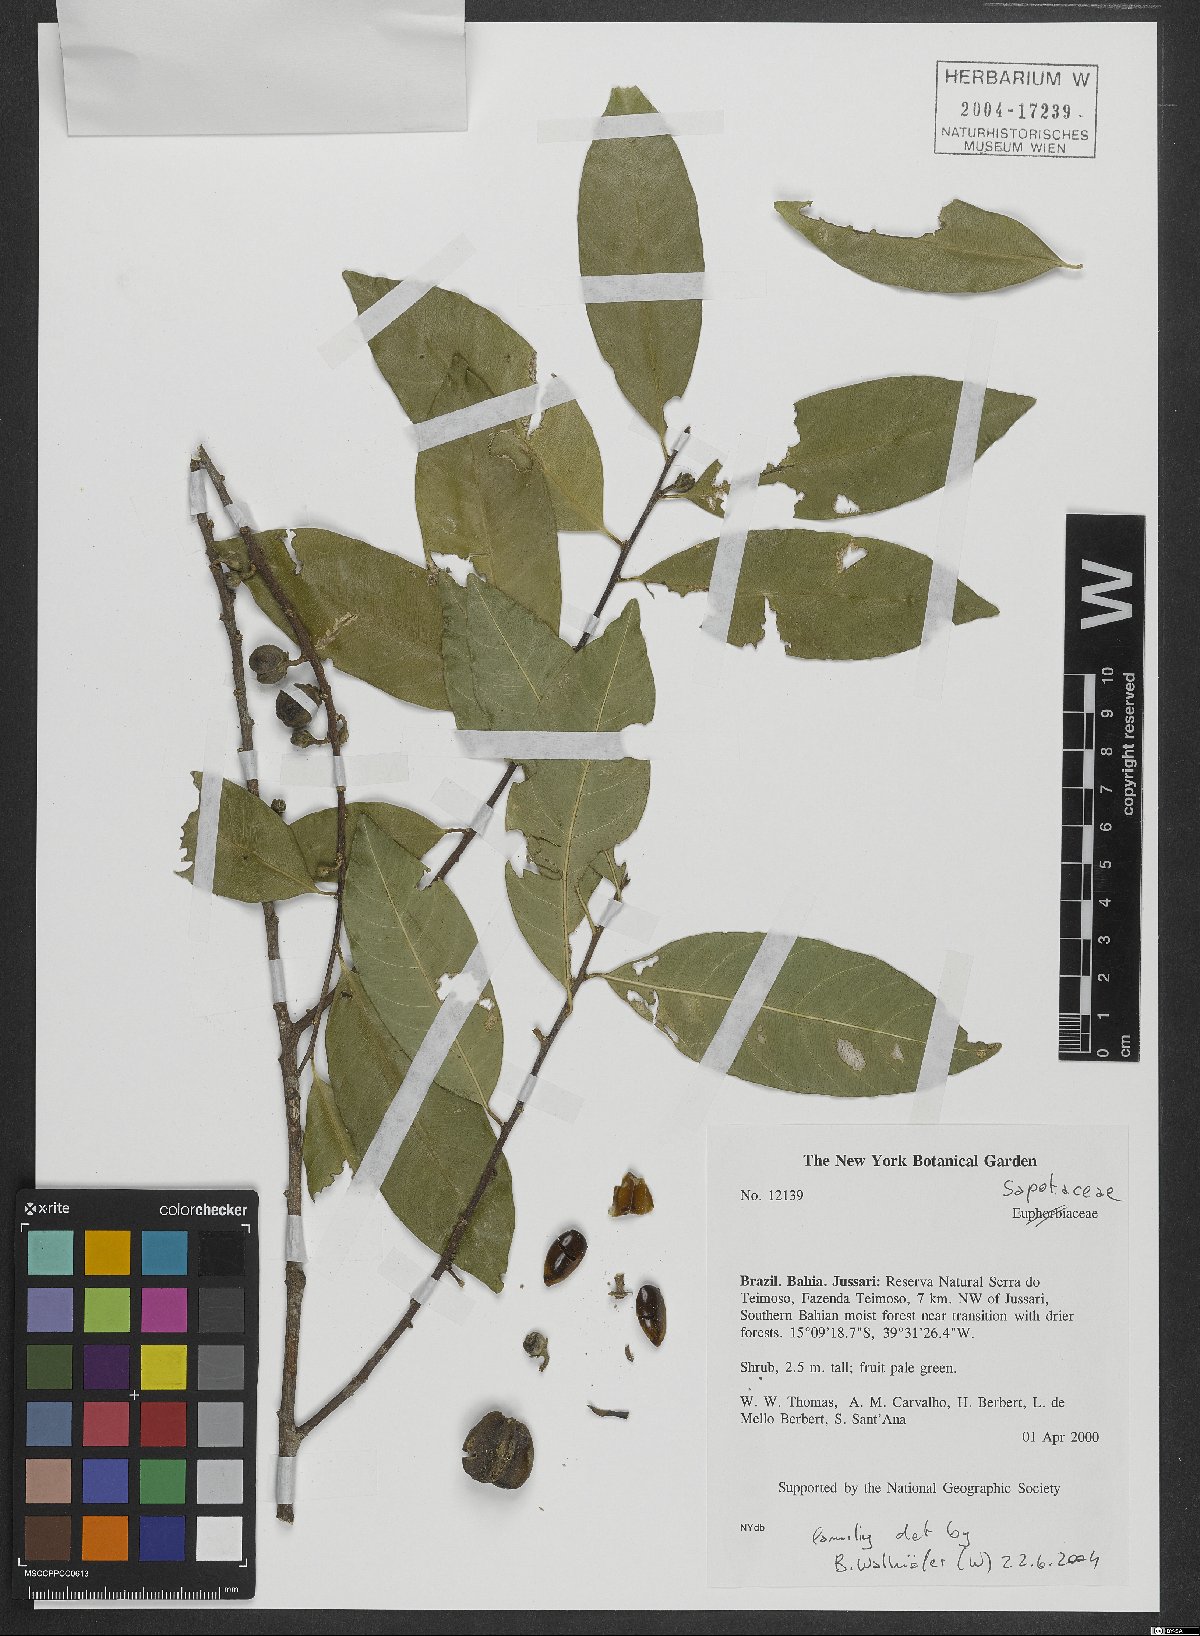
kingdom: Plantae
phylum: Tracheophyta
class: Magnoliopsida
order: Ericales
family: Sapotaceae
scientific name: Sapotaceae
